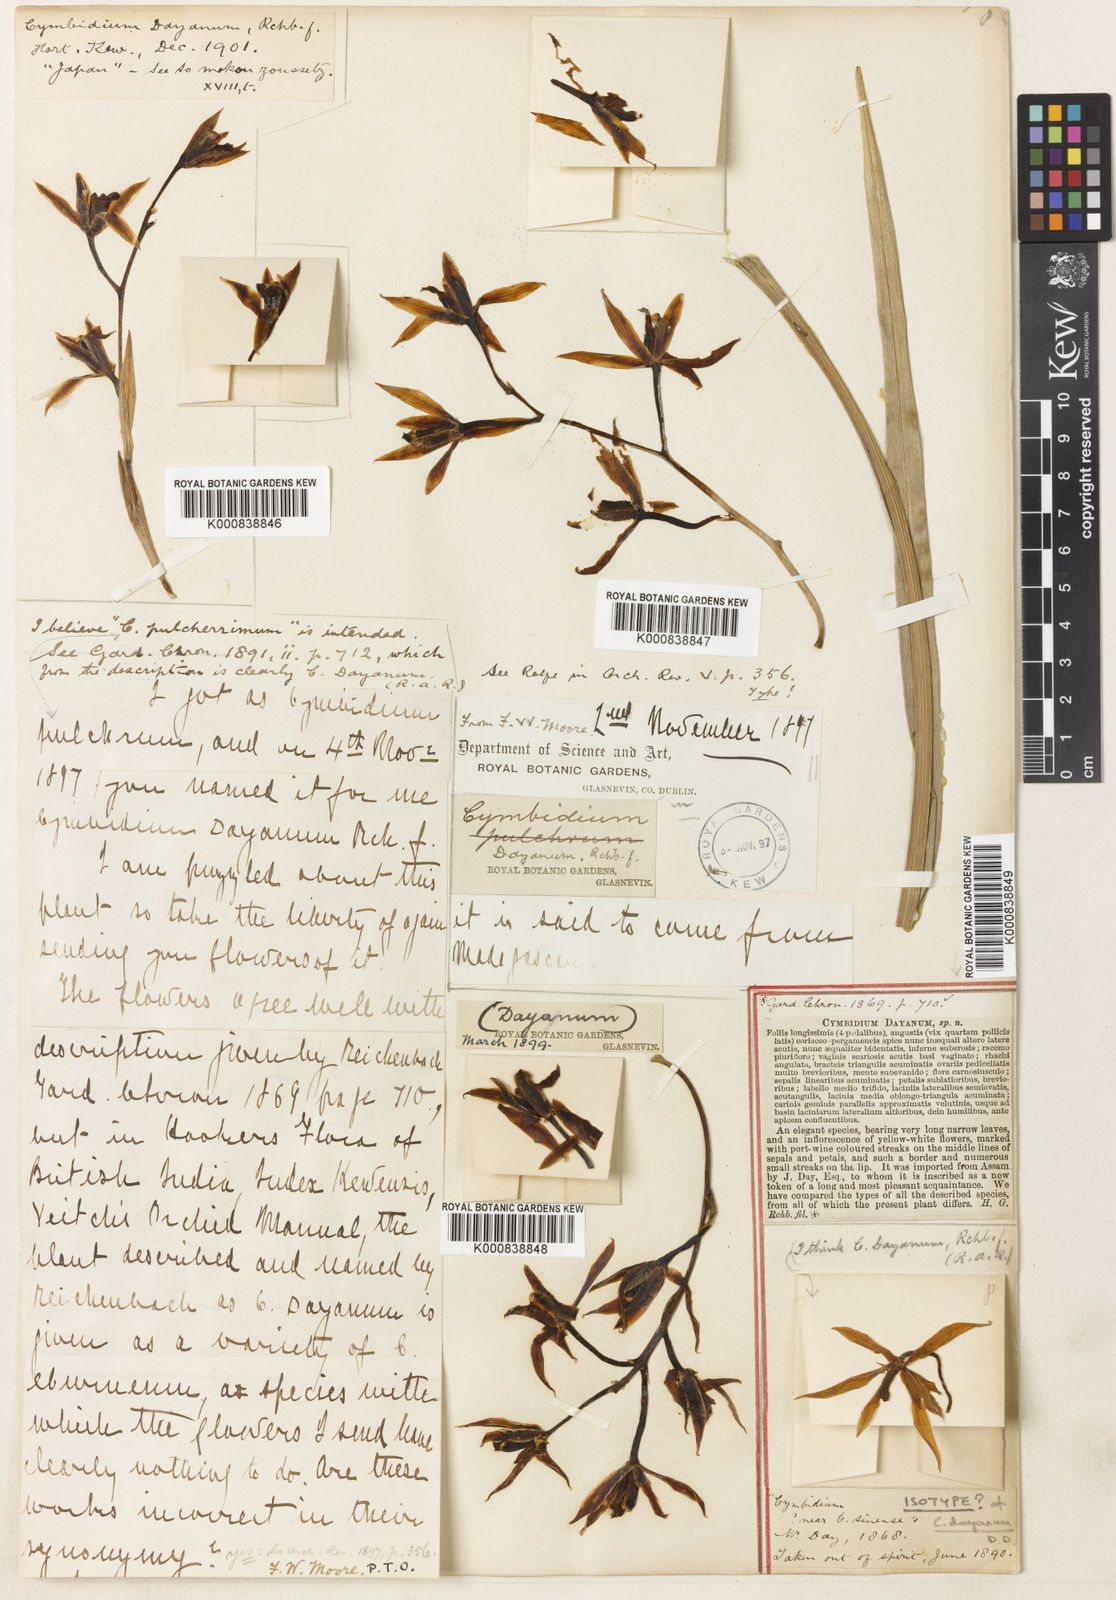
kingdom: Plantae
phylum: Tracheophyta
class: Liliopsida
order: Asparagales
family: Orchidaceae
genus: Cymbidium
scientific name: Cymbidium dayanum
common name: Orchid
